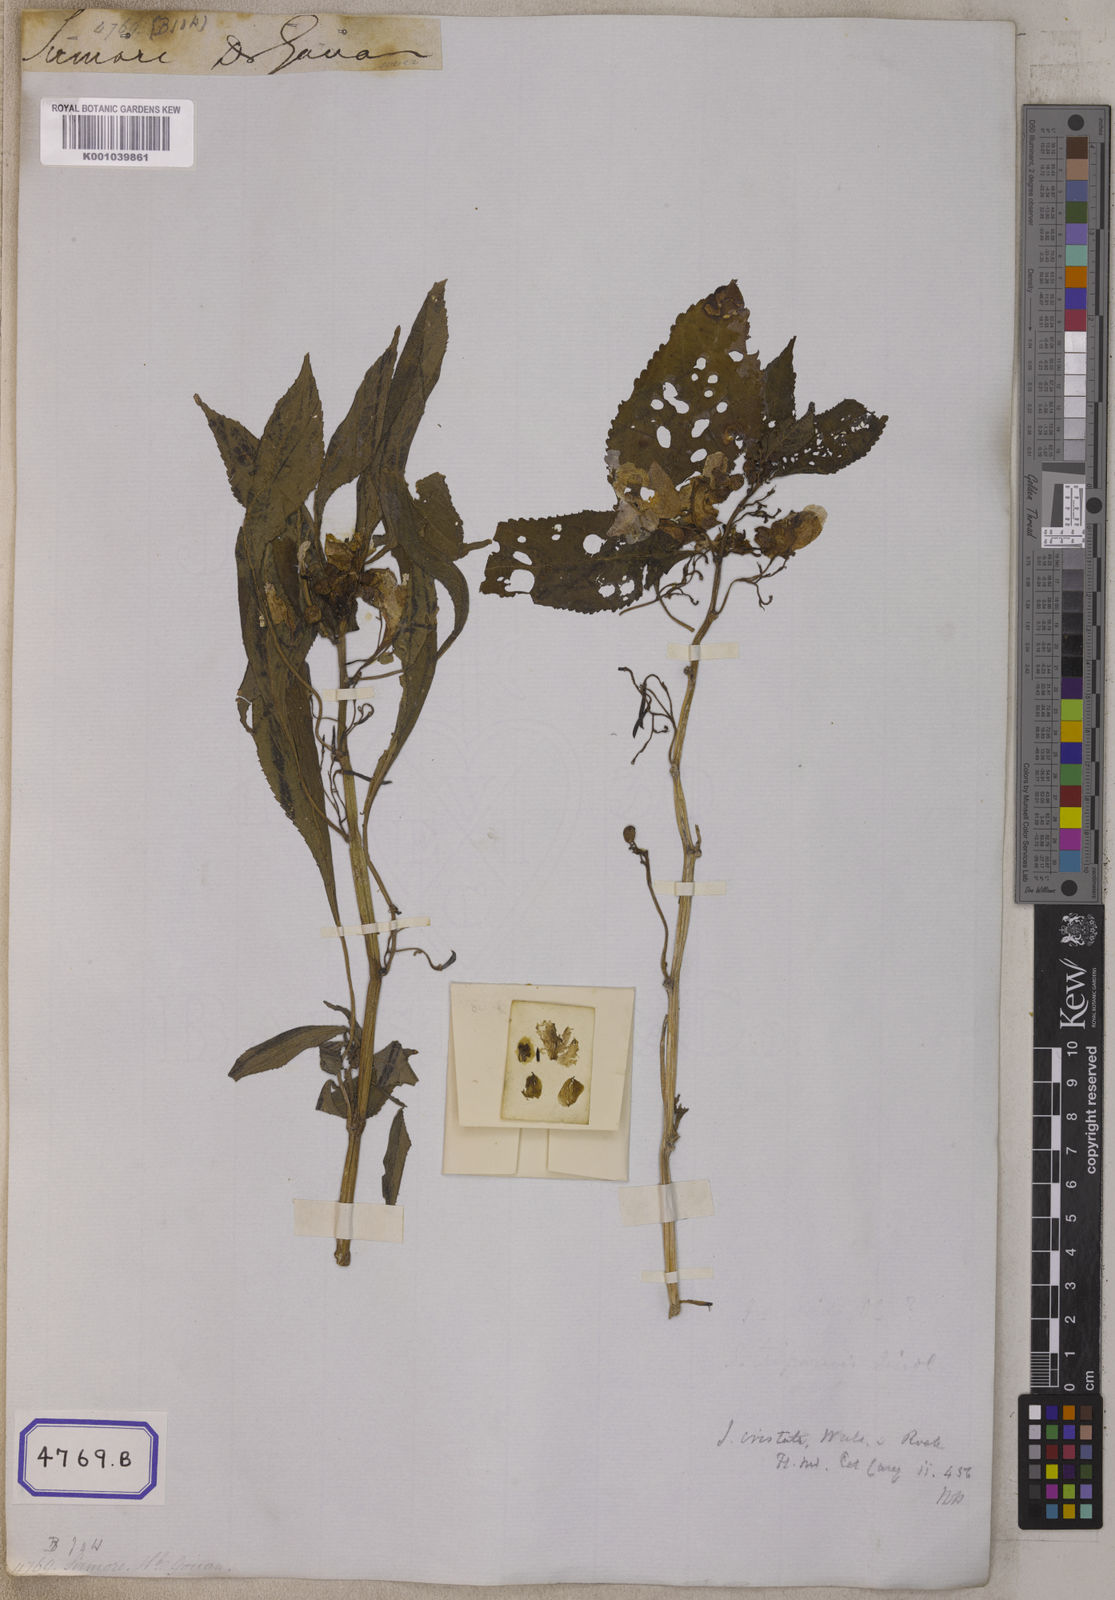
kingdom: Plantae
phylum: Tracheophyta
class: Magnoliopsida
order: Ericales
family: Balsaminaceae
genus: Impatiens
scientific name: Impatiens scabrida
